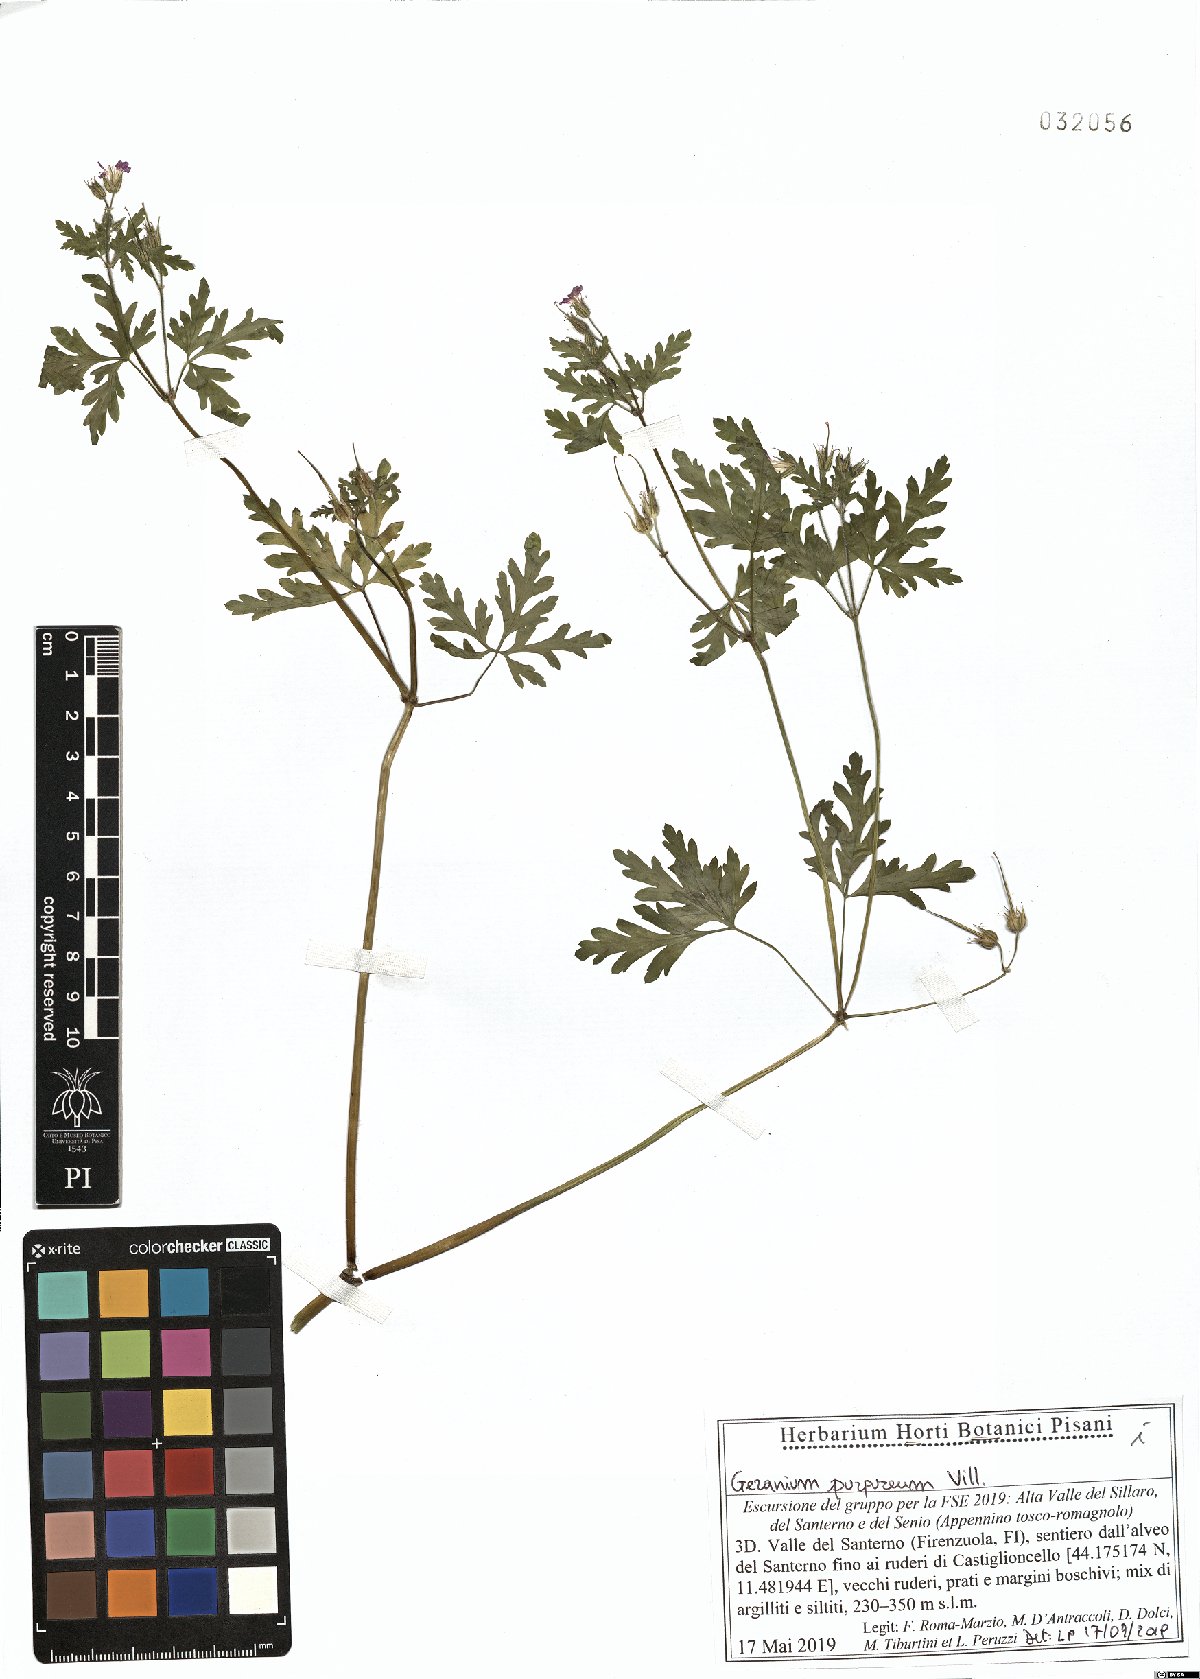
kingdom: Plantae
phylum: Tracheophyta
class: Magnoliopsida
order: Geraniales
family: Geraniaceae
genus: Geranium
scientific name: Geranium purpureum
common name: Little-robin
